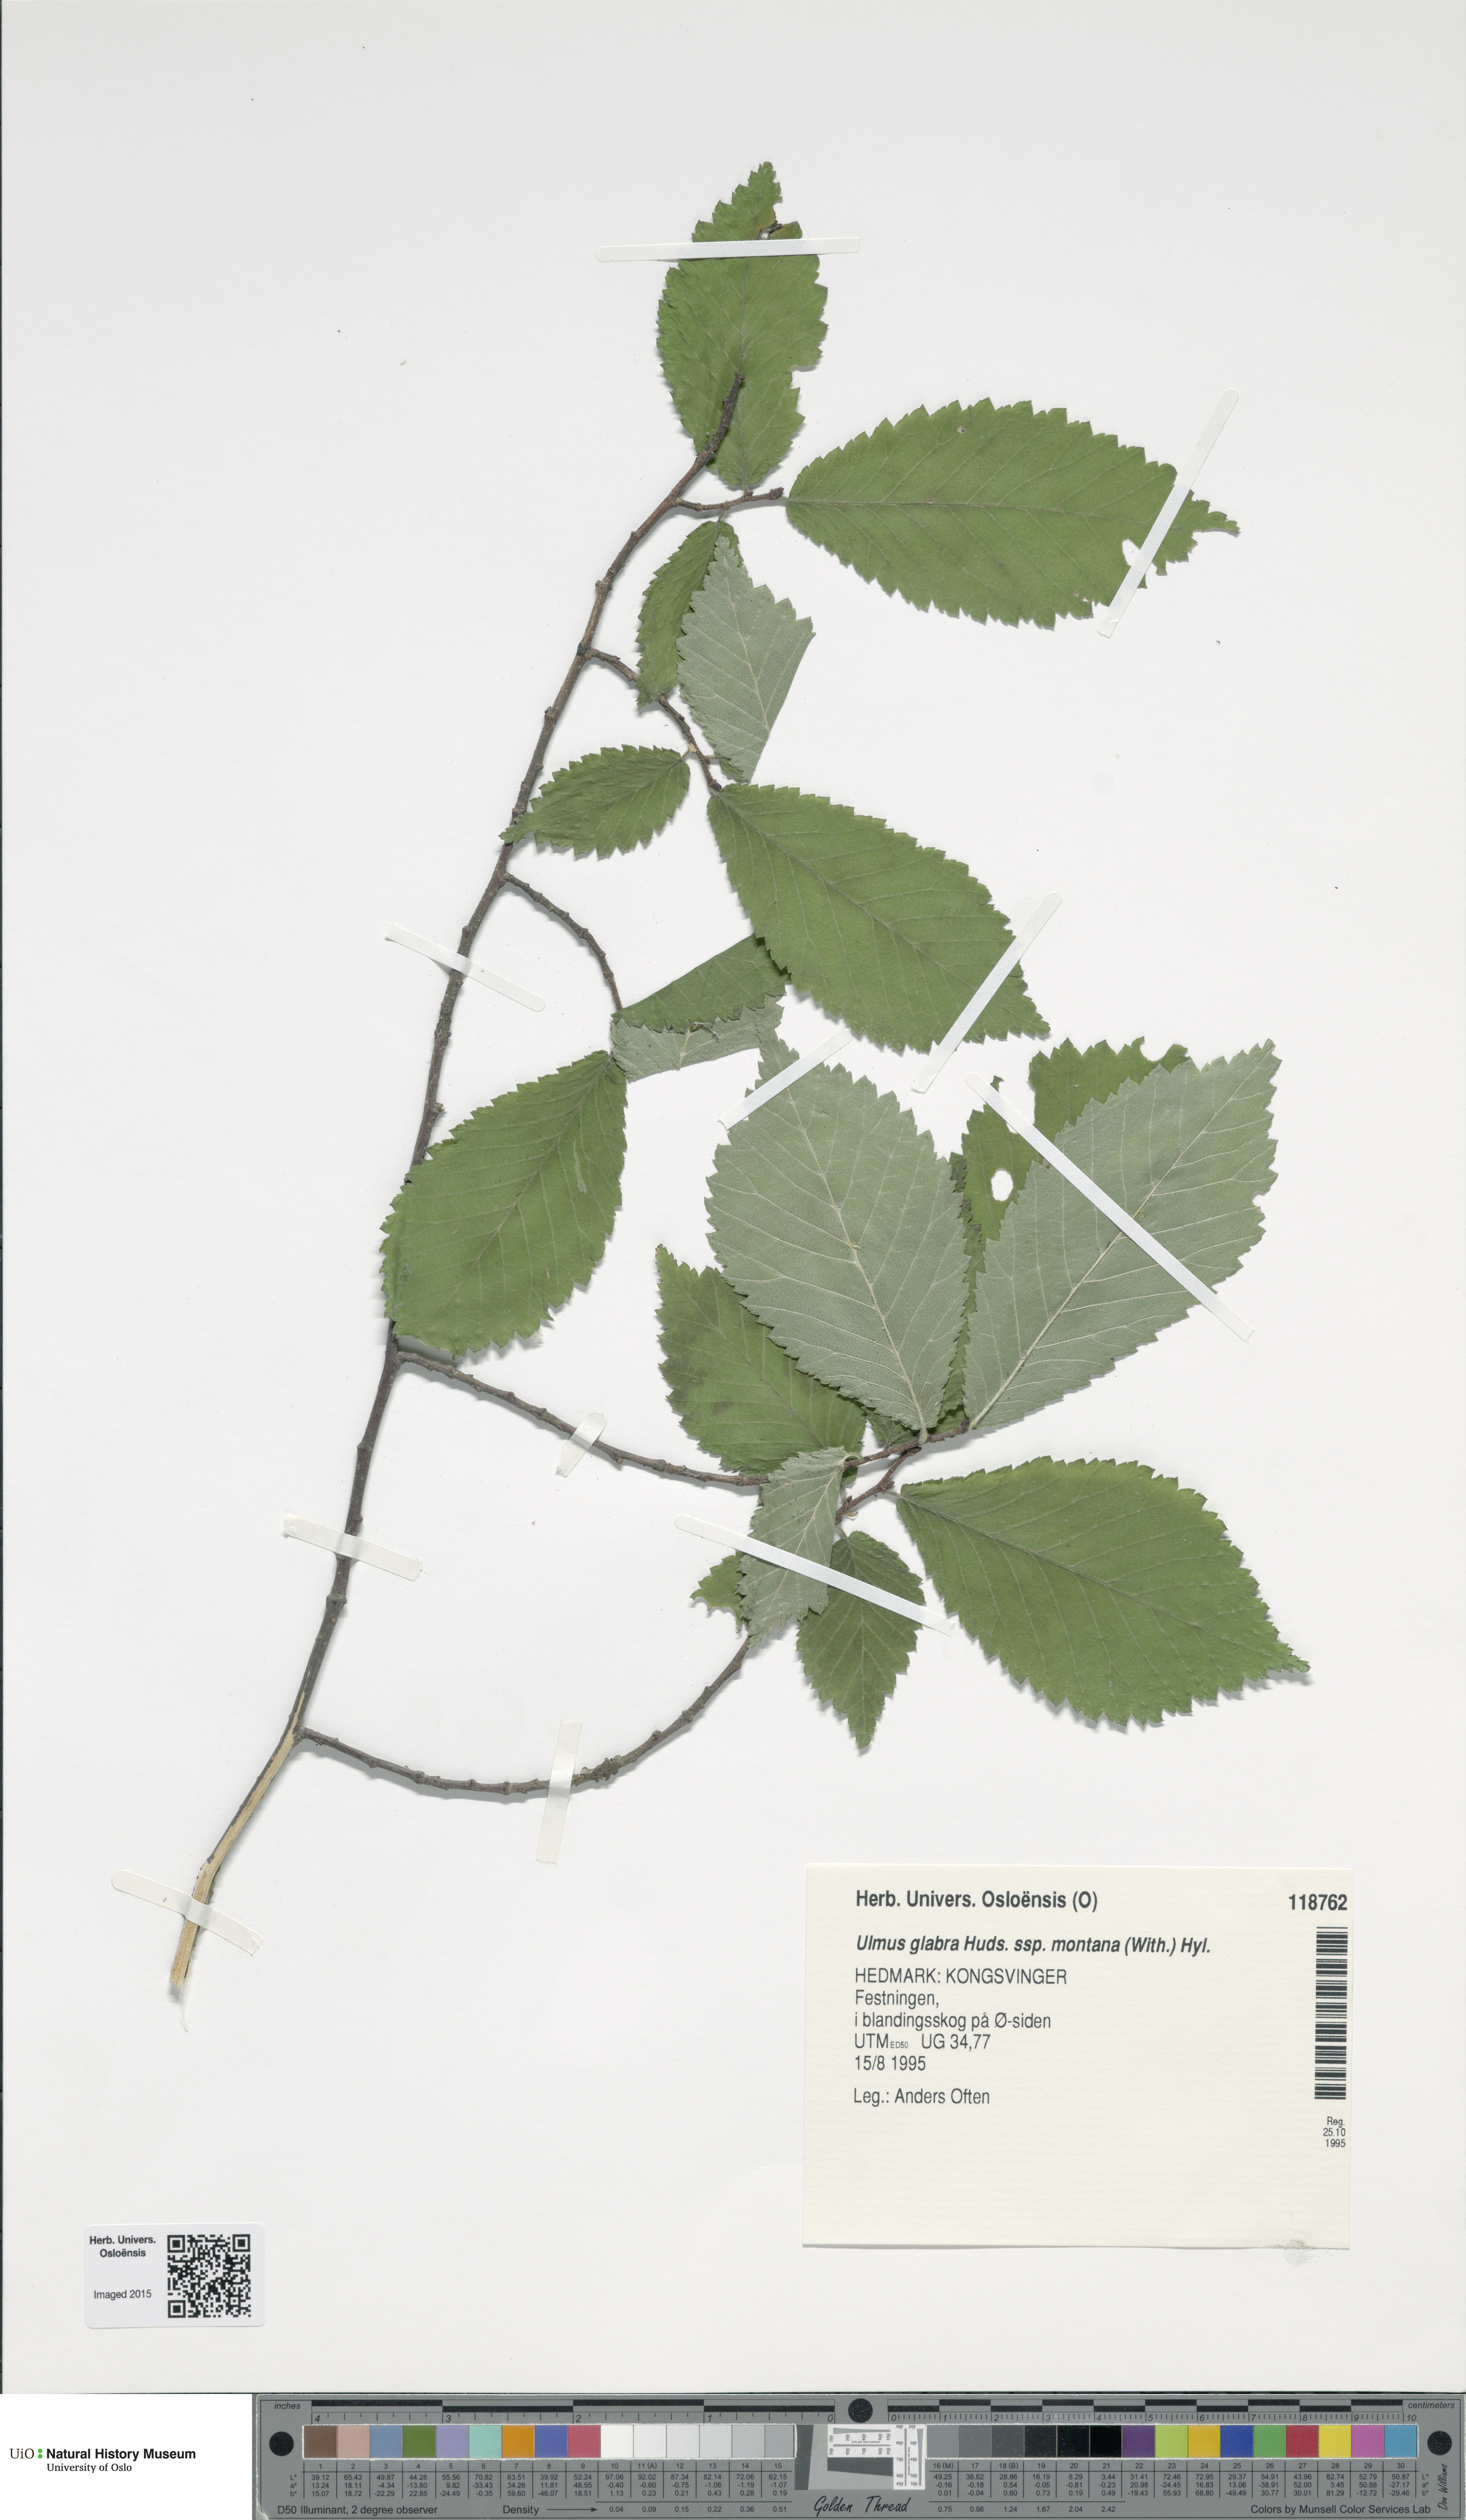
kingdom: Plantae
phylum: Tracheophyta
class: Magnoliopsida
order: Rosales
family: Ulmaceae
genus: Ulmus
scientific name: Ulmus glabra
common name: Wych elm
